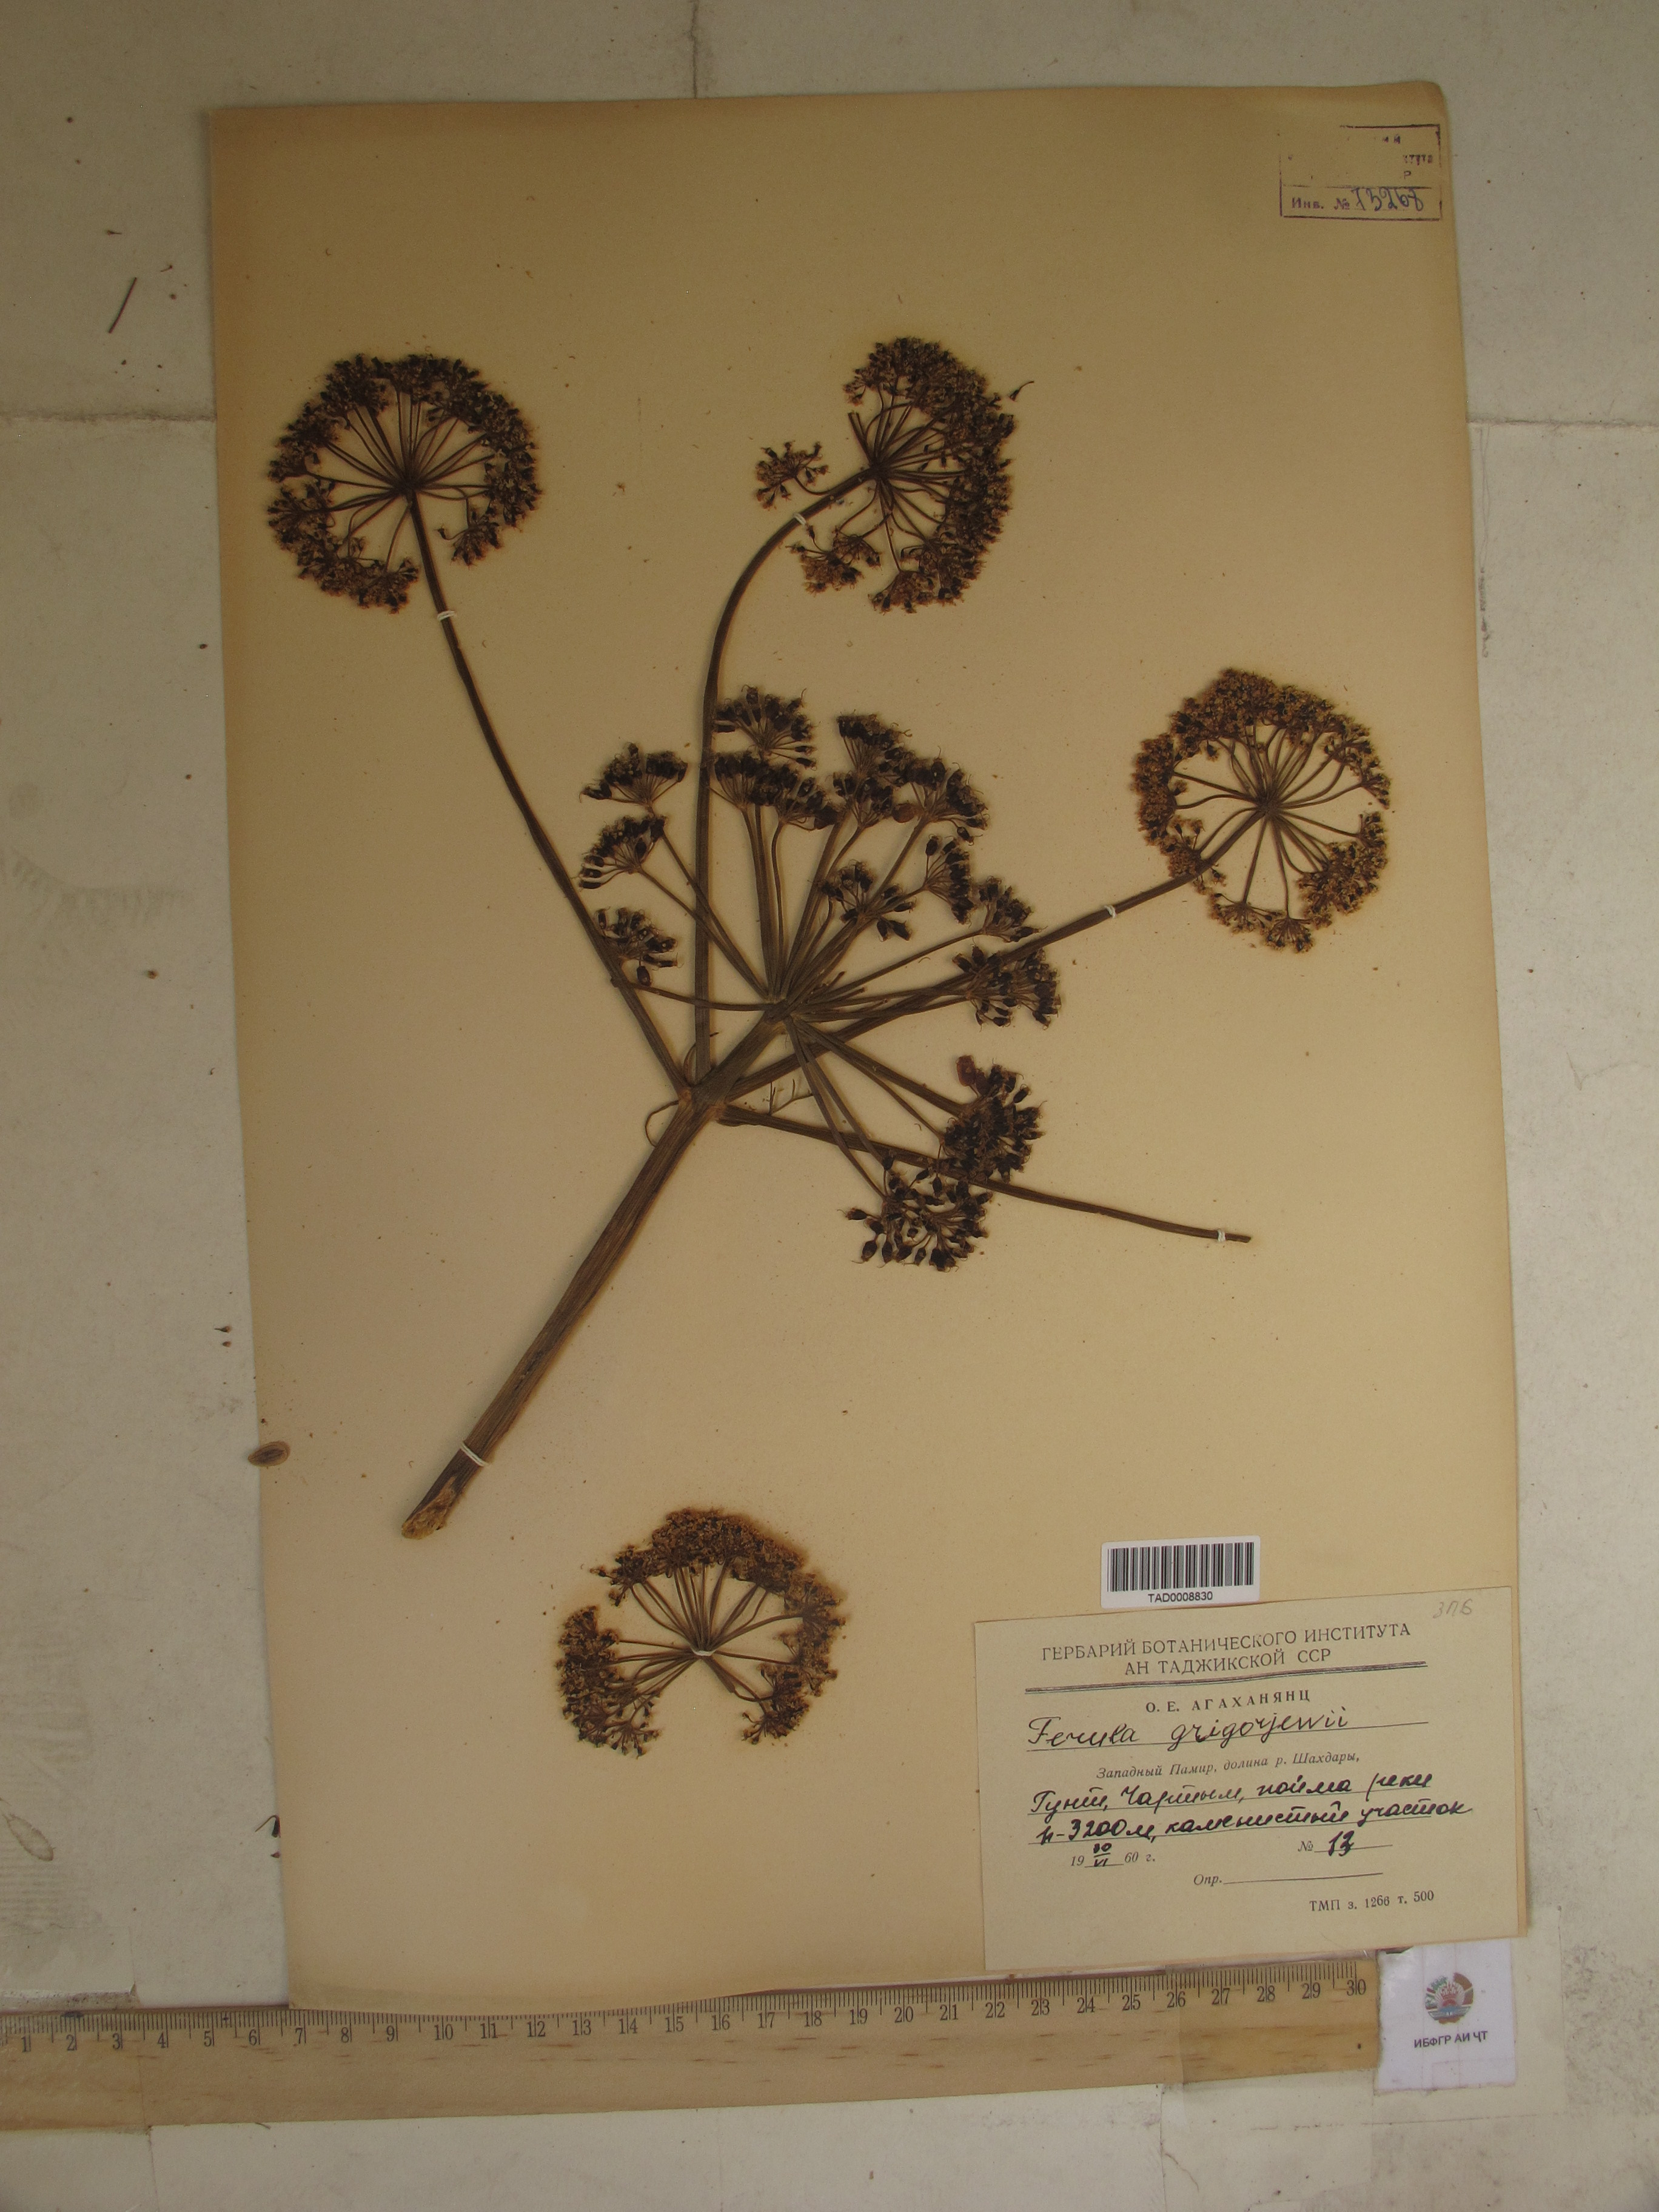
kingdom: Plantae
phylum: Tracheophyta
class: Magnoliopsida
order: Apiales
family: Apiaceae
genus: Ferula
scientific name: Ferula grigoriewii
